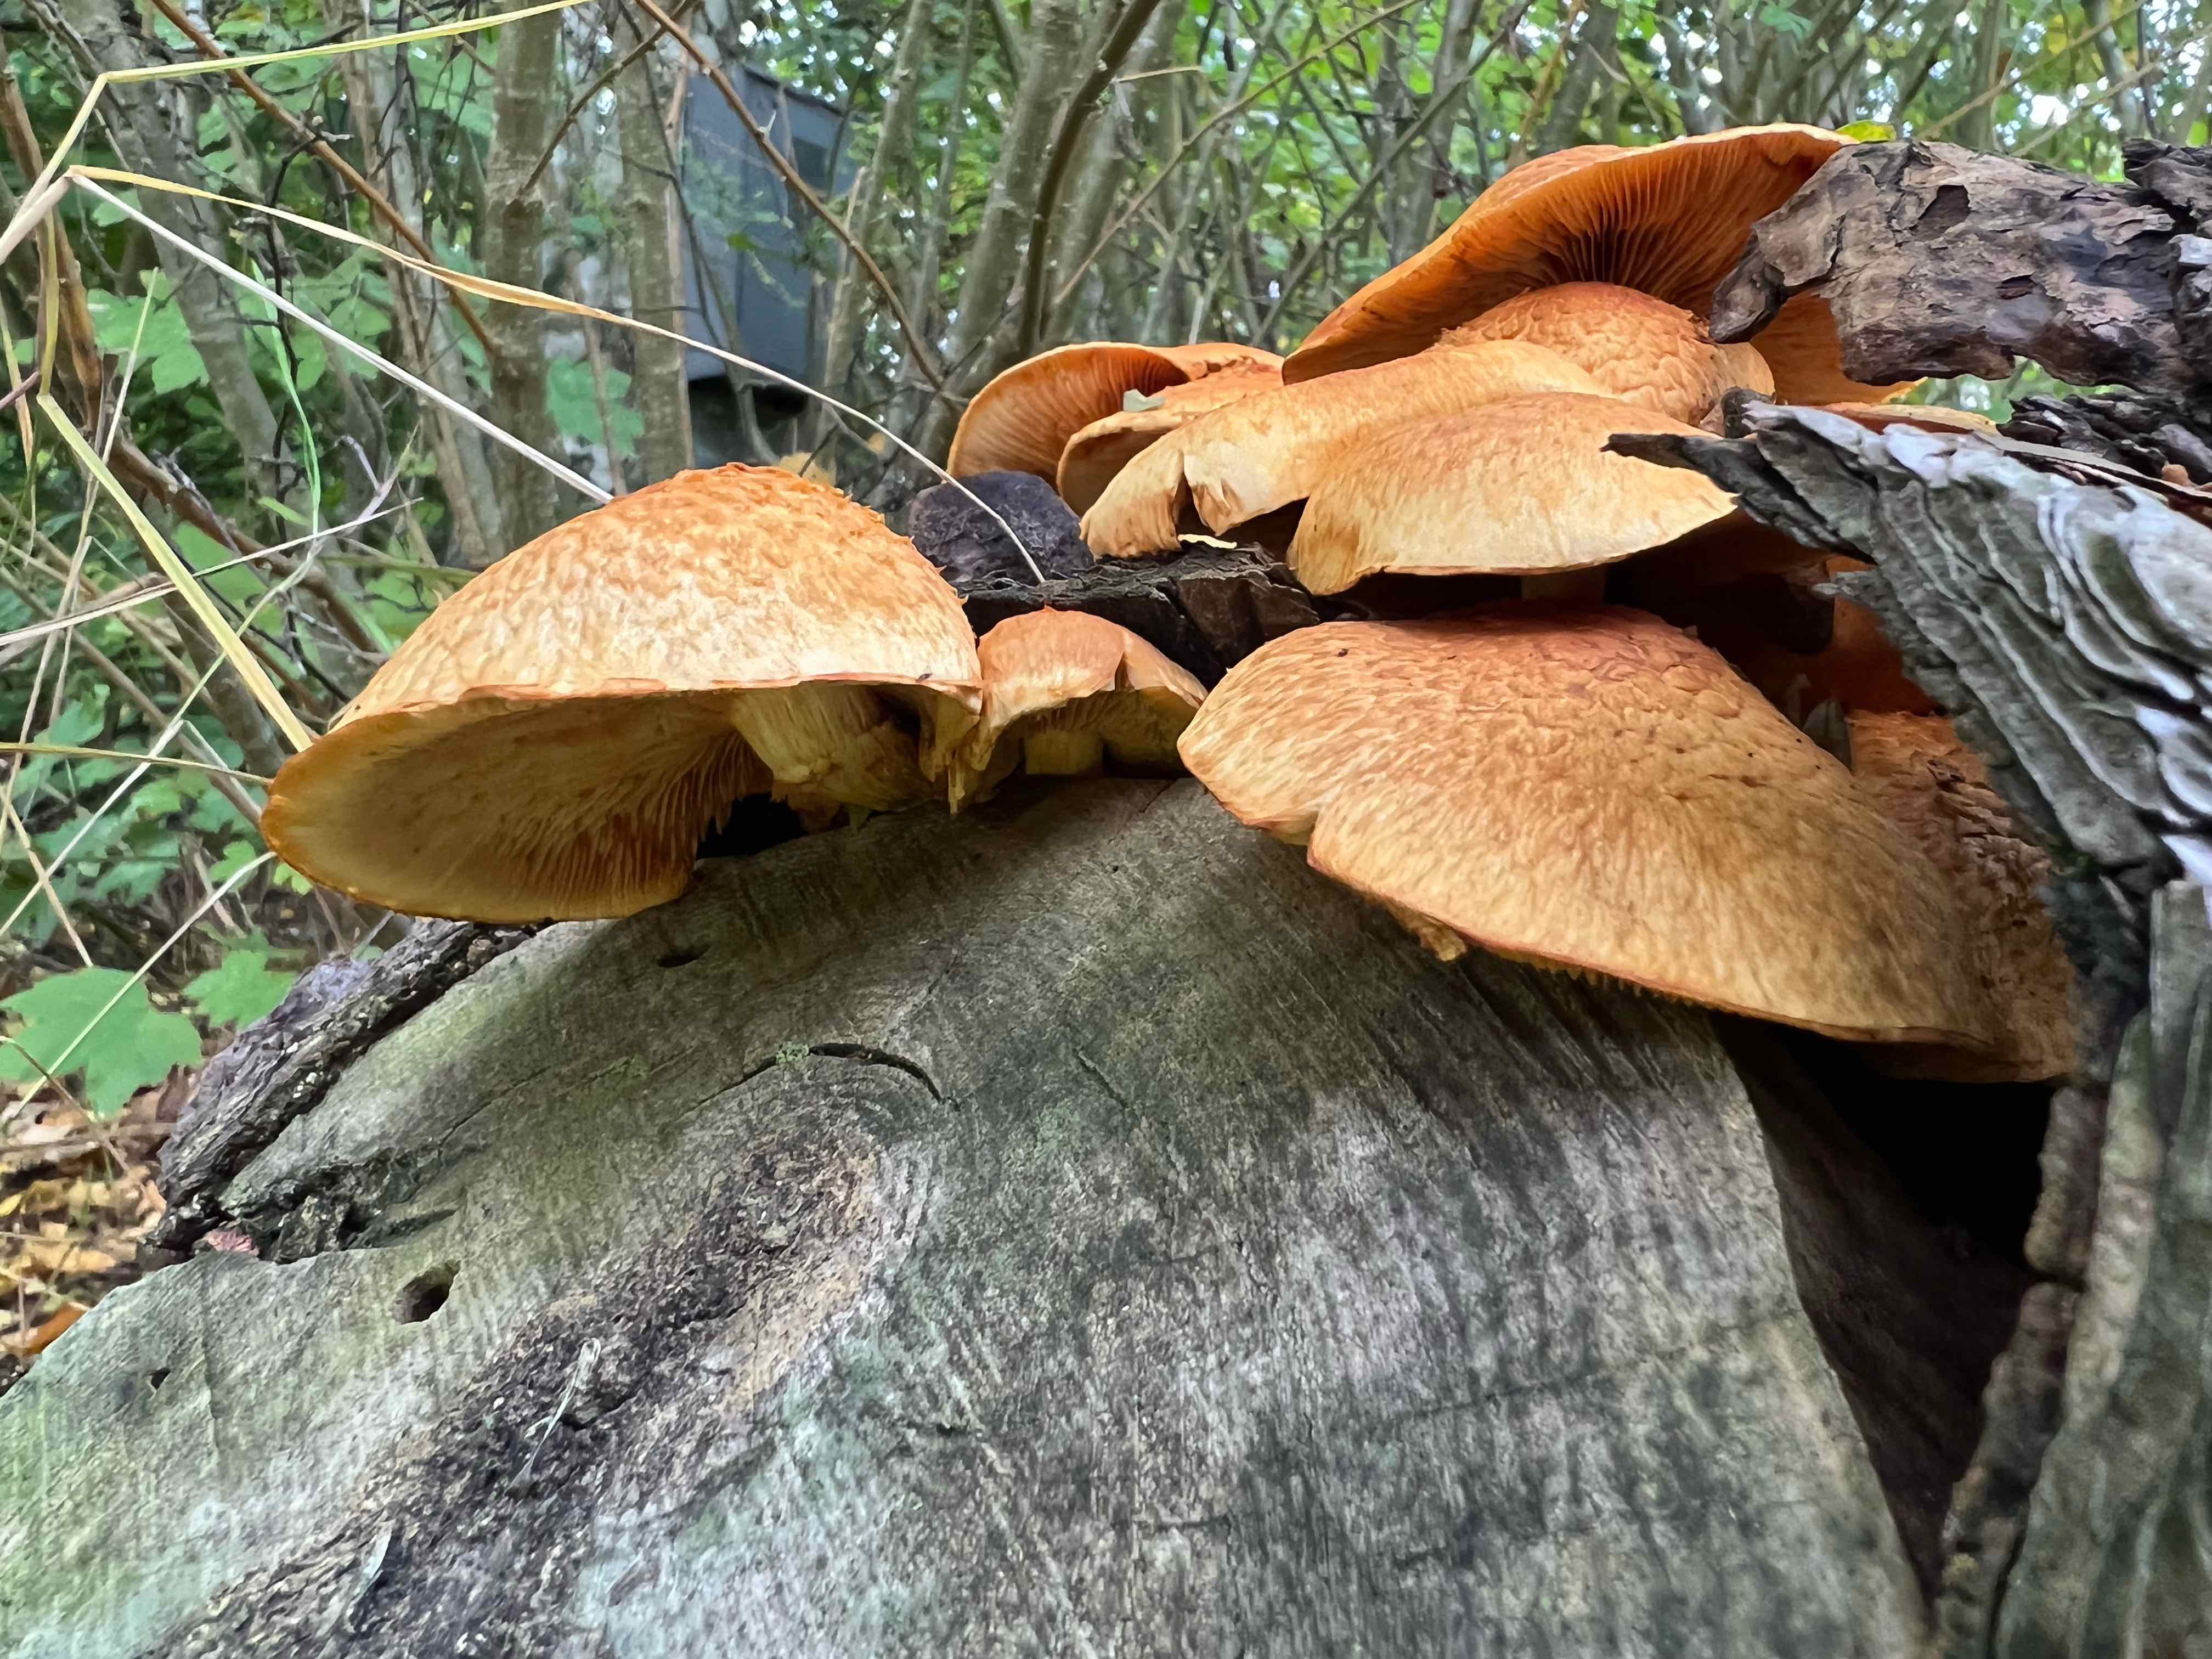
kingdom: Fungi
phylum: Basidiomycota
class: Agaricomycetes
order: Agaricales
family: Hymenogastraceae
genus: Gymnopilus
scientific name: Gymnopilus spectabilis
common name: fibret flammehat
